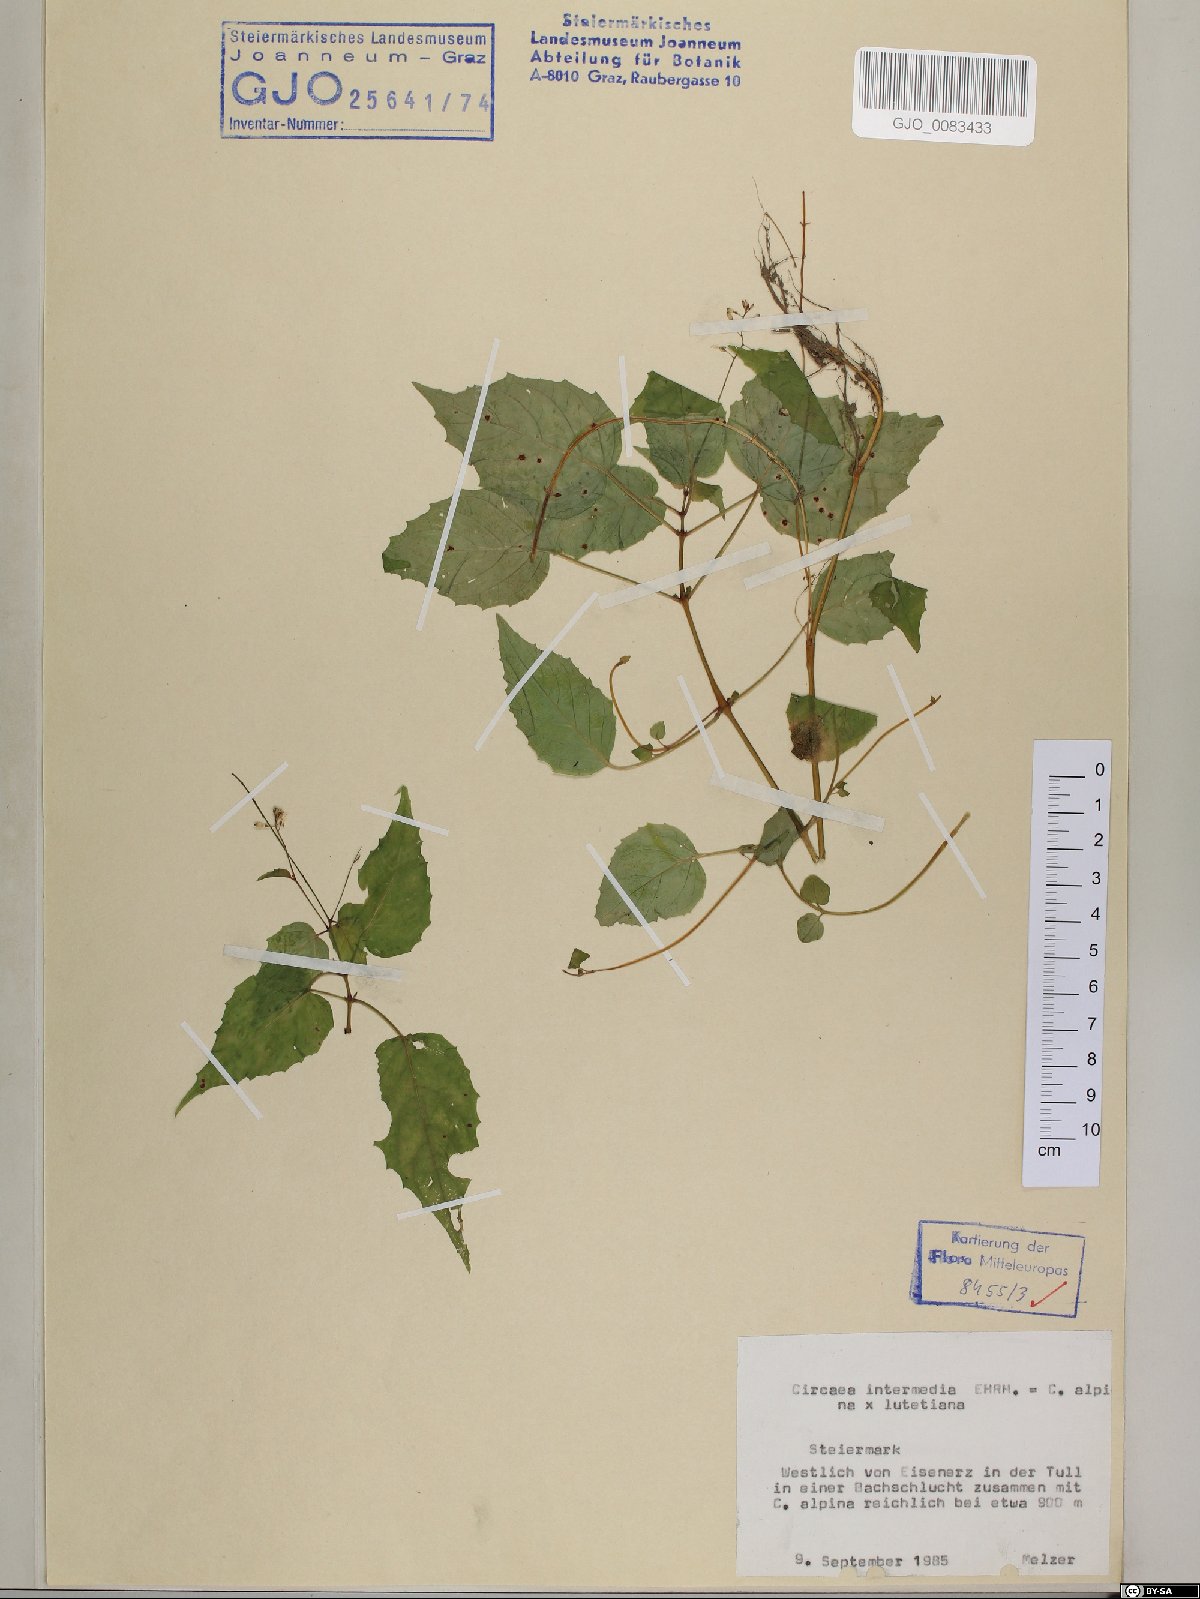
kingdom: Plantae
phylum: Tracheophyta
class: Magnoliopsida
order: Myrtales
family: Onagraceae
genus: Circaea
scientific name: Circaea intermedia
